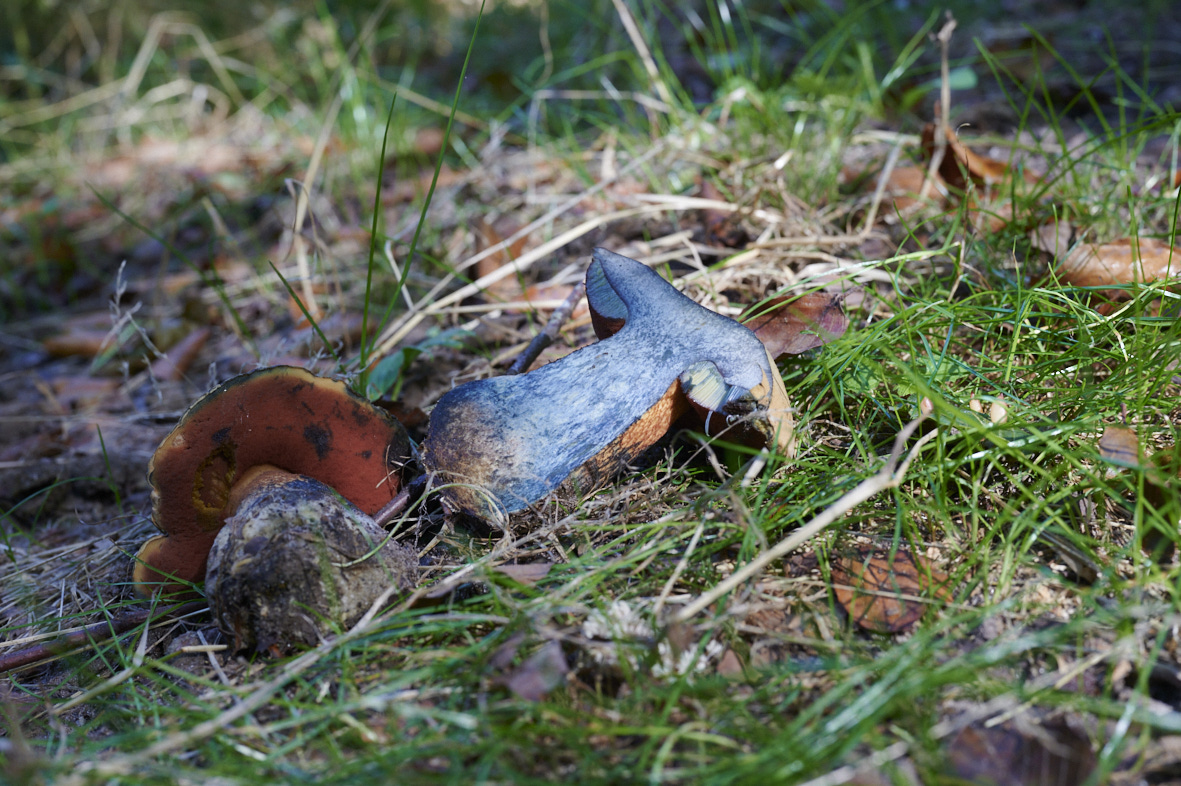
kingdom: Fungi
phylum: Basidiomycota
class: Agaricomycetes
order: Boletales
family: Boletaceae
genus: Suillellus
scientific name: Suillellus luridus
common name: netstokket indigorørhat
